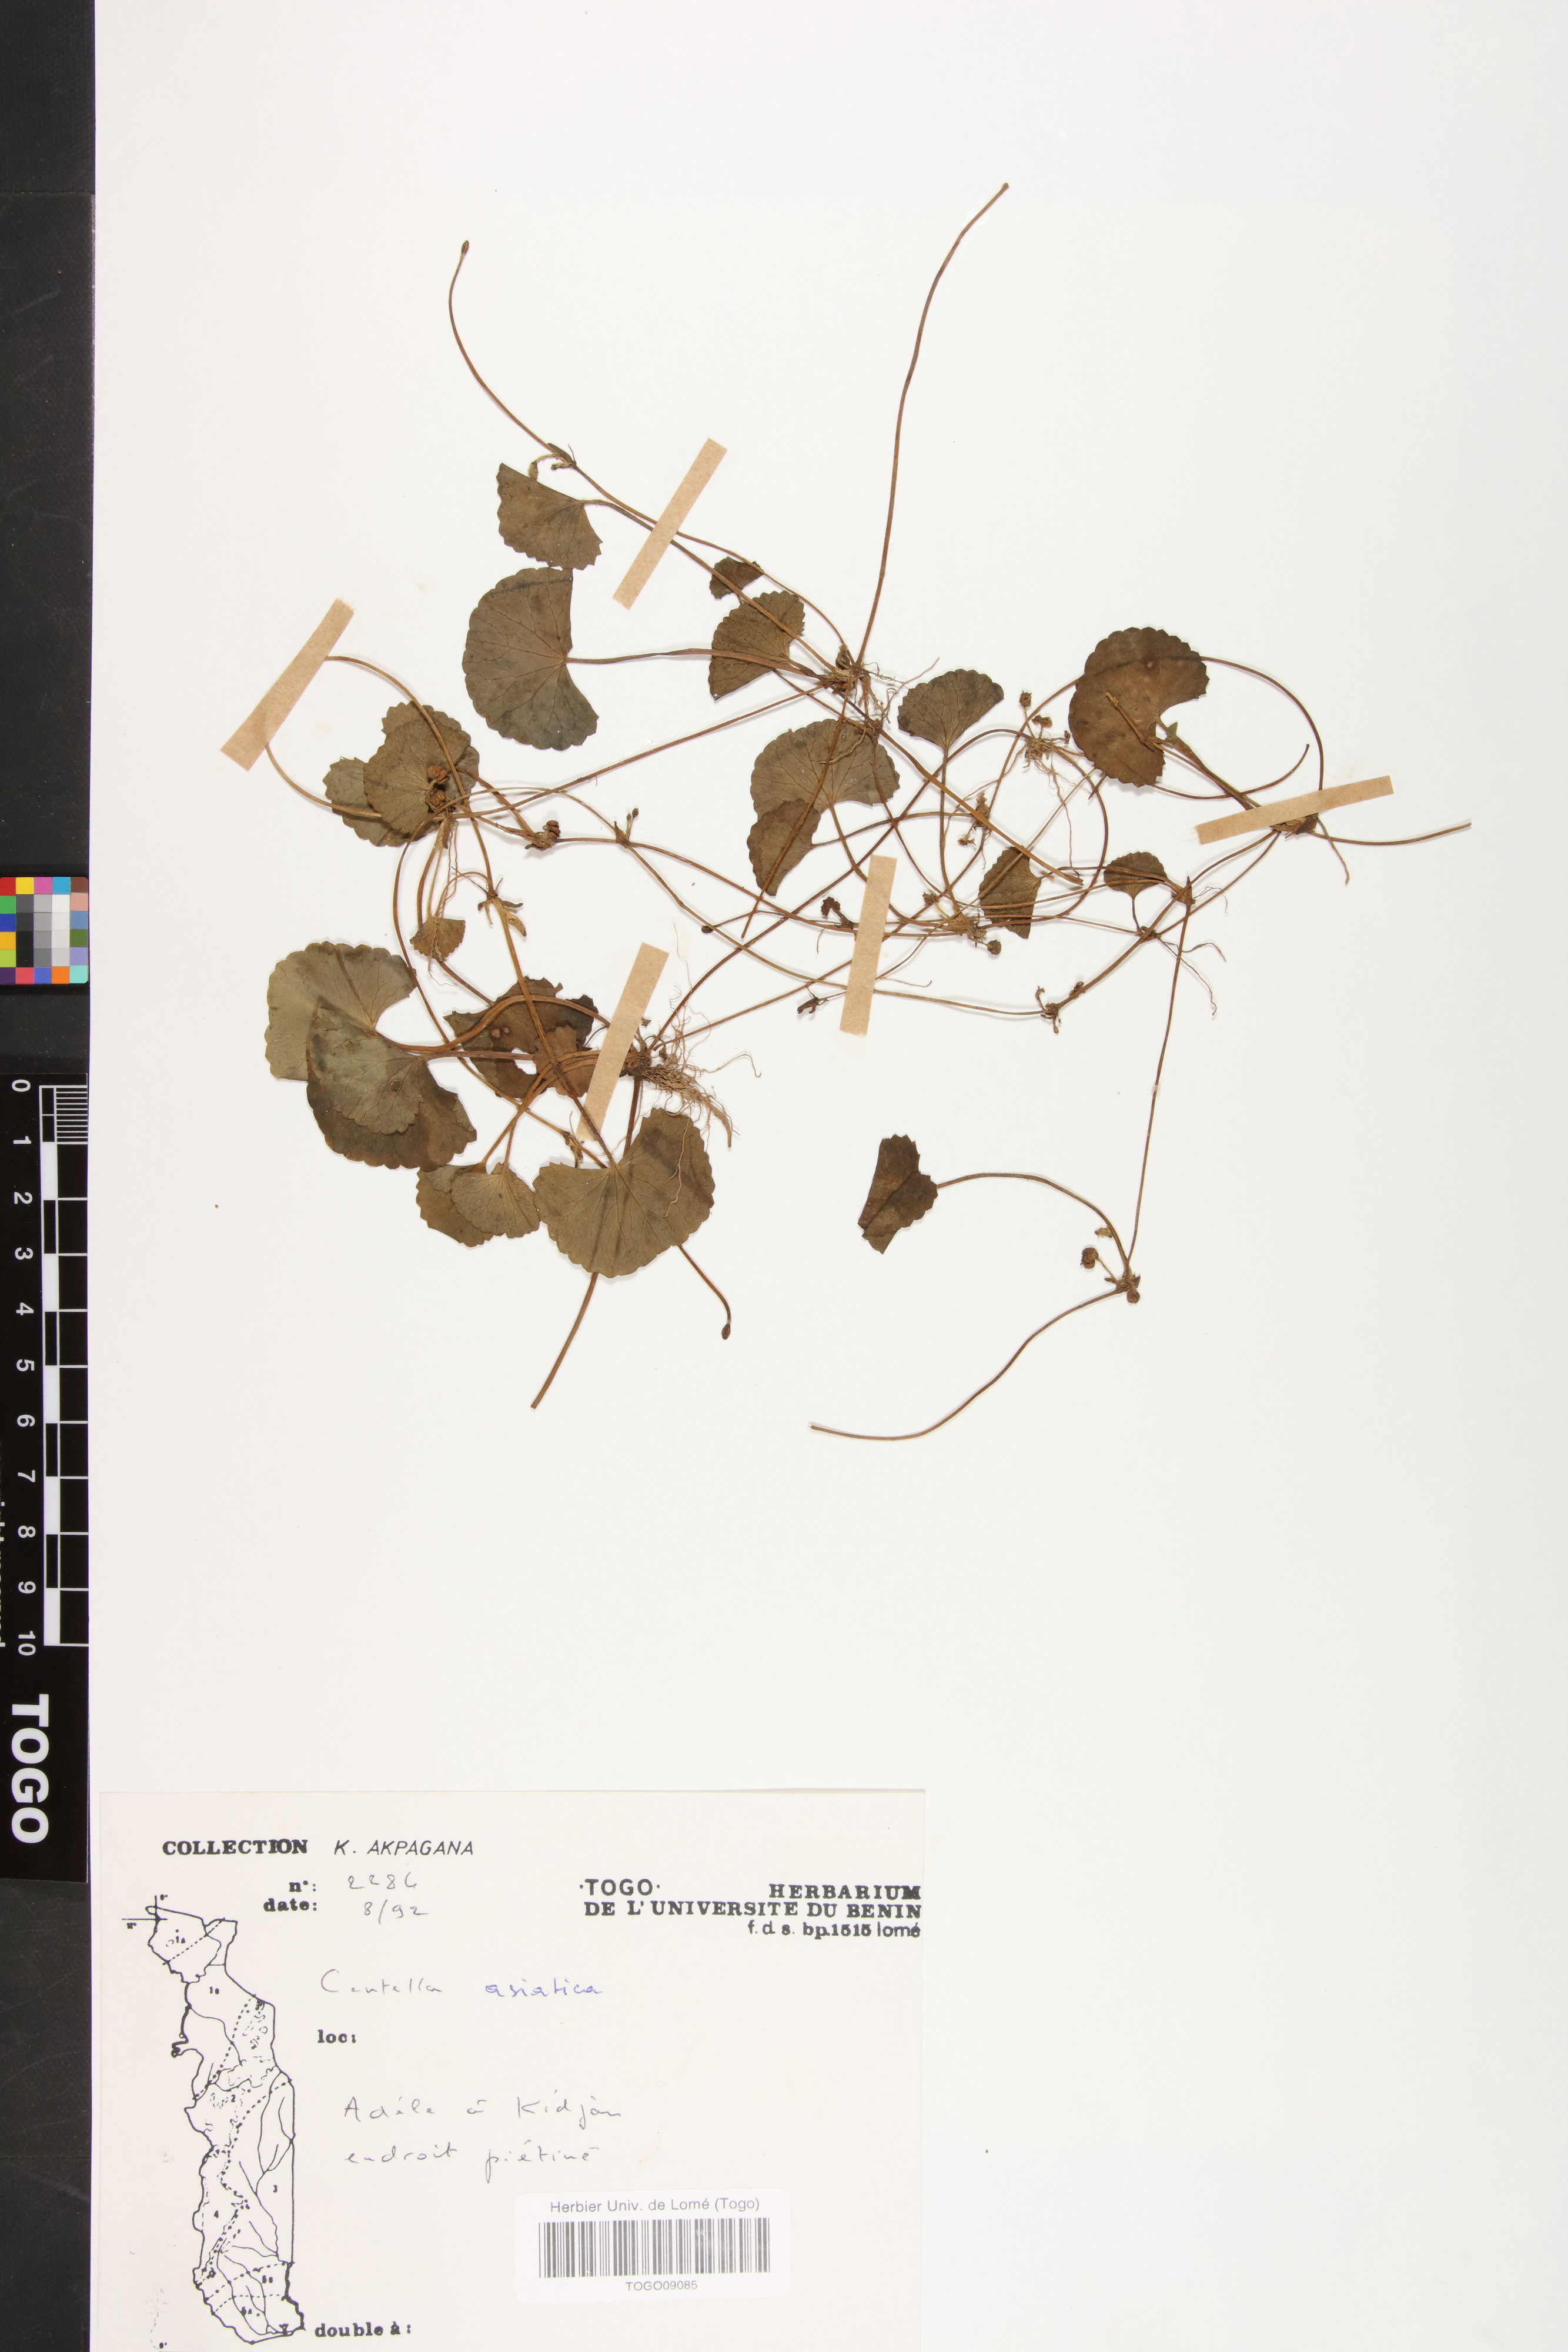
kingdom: Plantae
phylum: Tracheophyta
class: Magnoliopsida
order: Apiales
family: Apiaceae
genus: Centella
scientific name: Centella asiatica
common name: Spadeleaf
